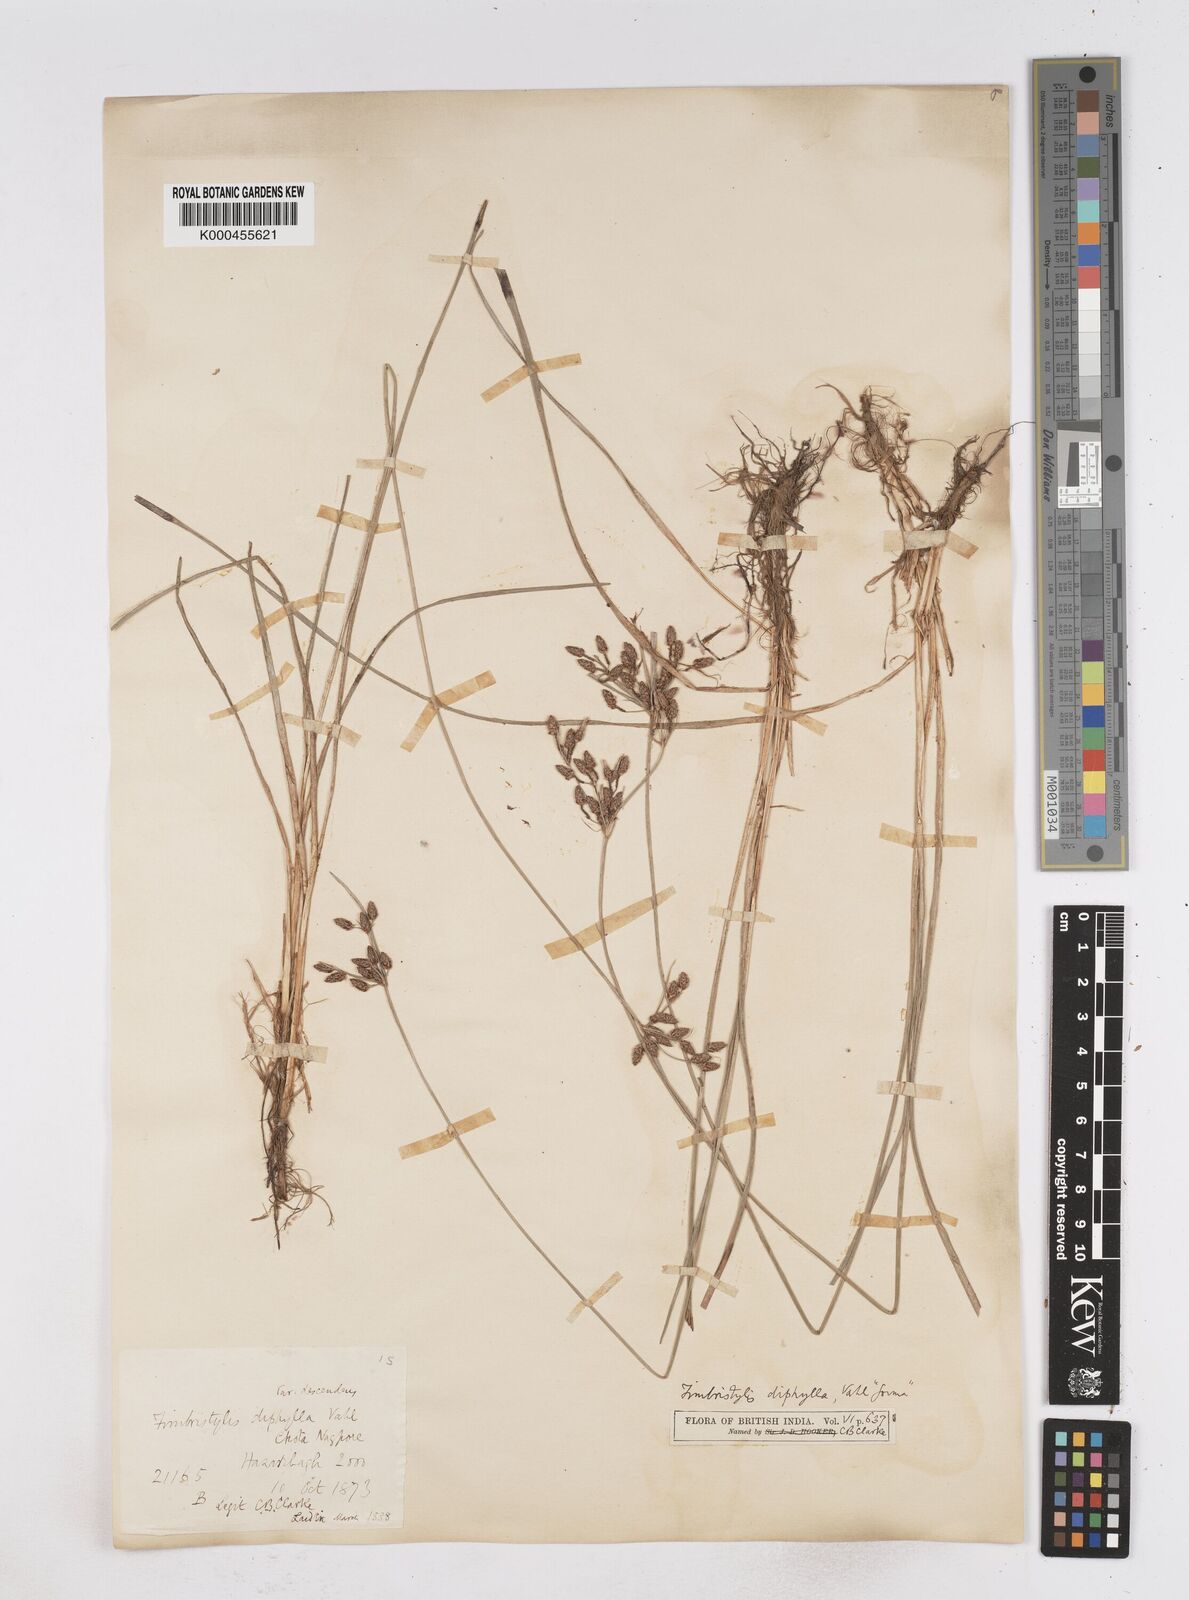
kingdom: Plantae
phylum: Tracheophyta
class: Liliopsida
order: Poales
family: Cyperaceae
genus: Fimbristylis
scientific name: Fimbristylis dichotoma
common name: Forked fimbry
